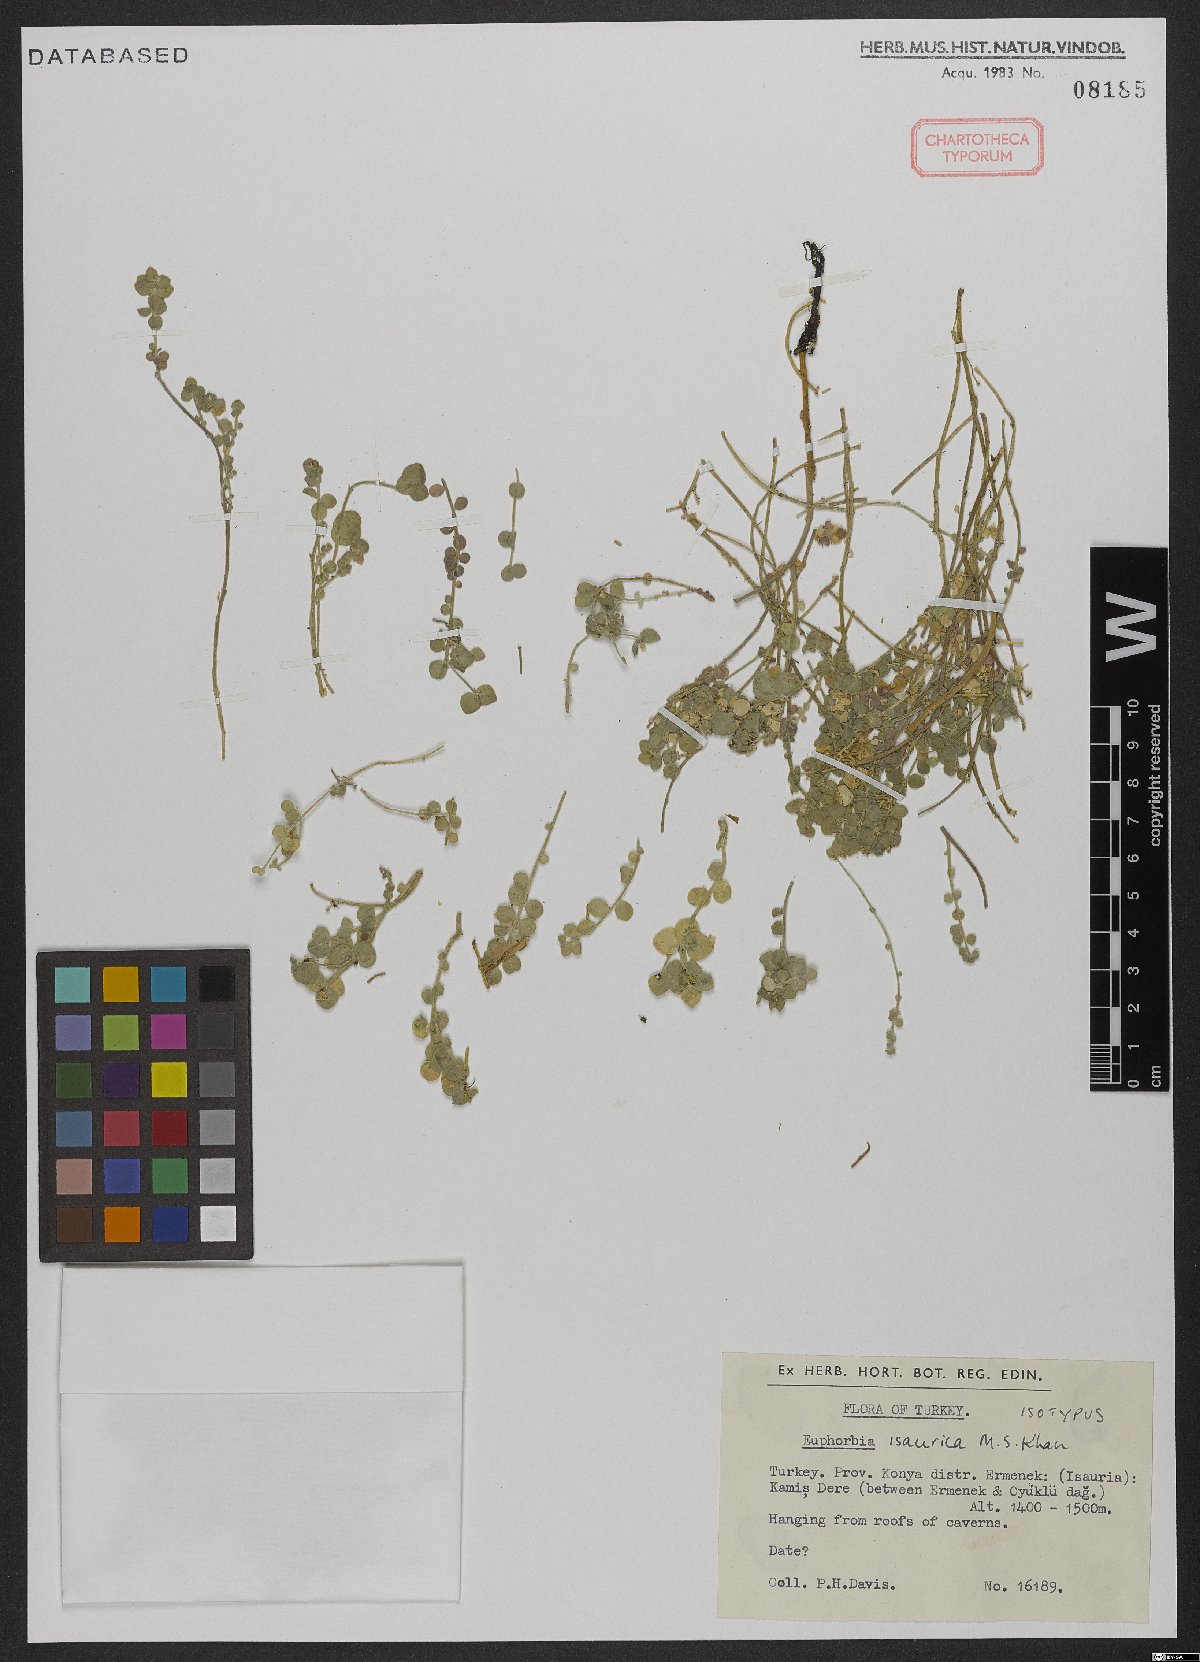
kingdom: Plantae
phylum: Tracheophyta
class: Magnoliopsida
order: Malpighiales
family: Euphorbiaceae
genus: Euphorbia
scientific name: Euphorbia isaurica
